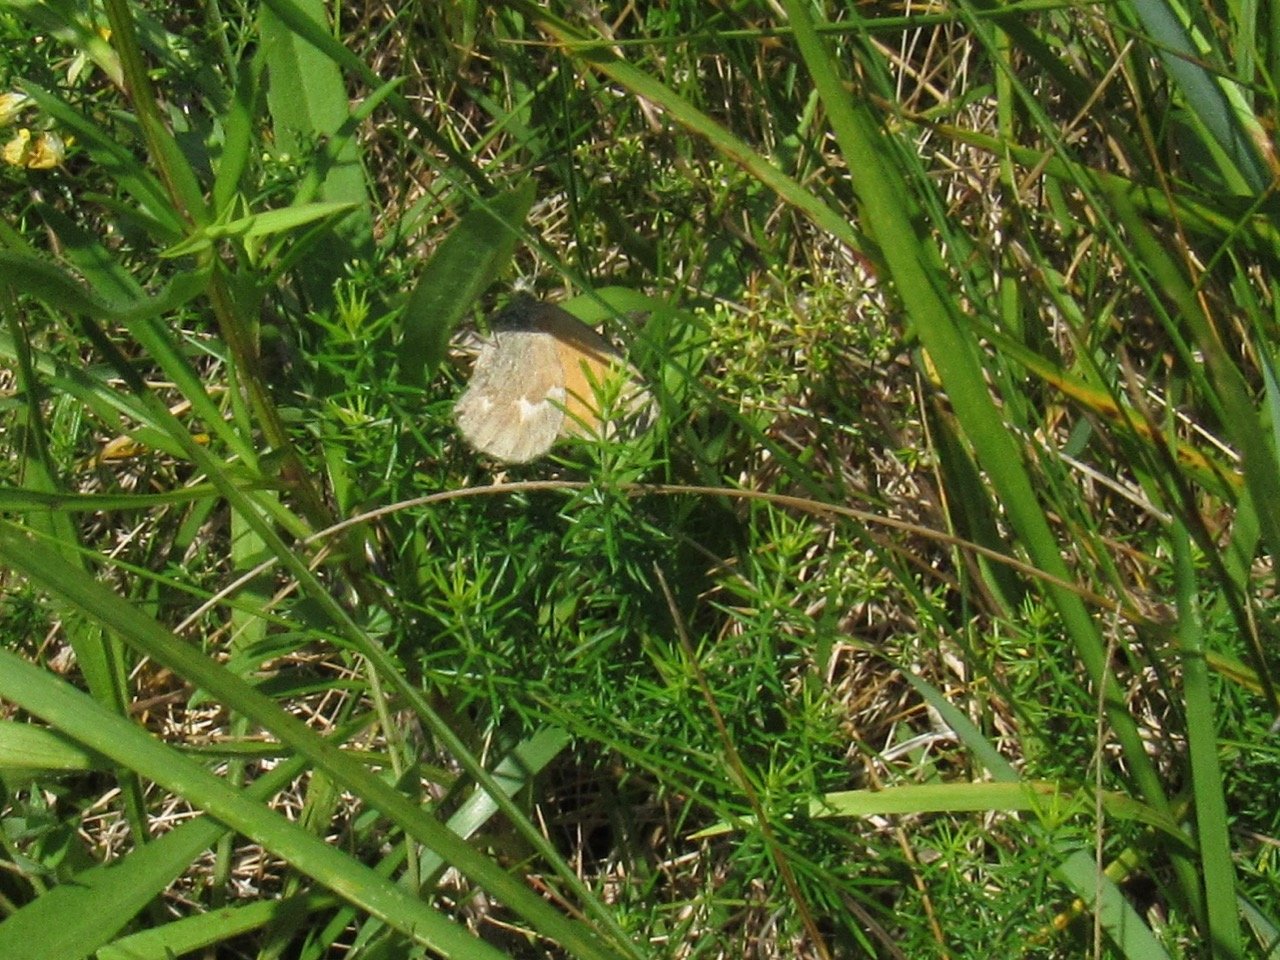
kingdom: Animalia
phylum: Arthropoda
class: Insecta
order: Lepidoptera
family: Nymphalidae
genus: Coenonympha
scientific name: Coenonympha tullia
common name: Large Heath
